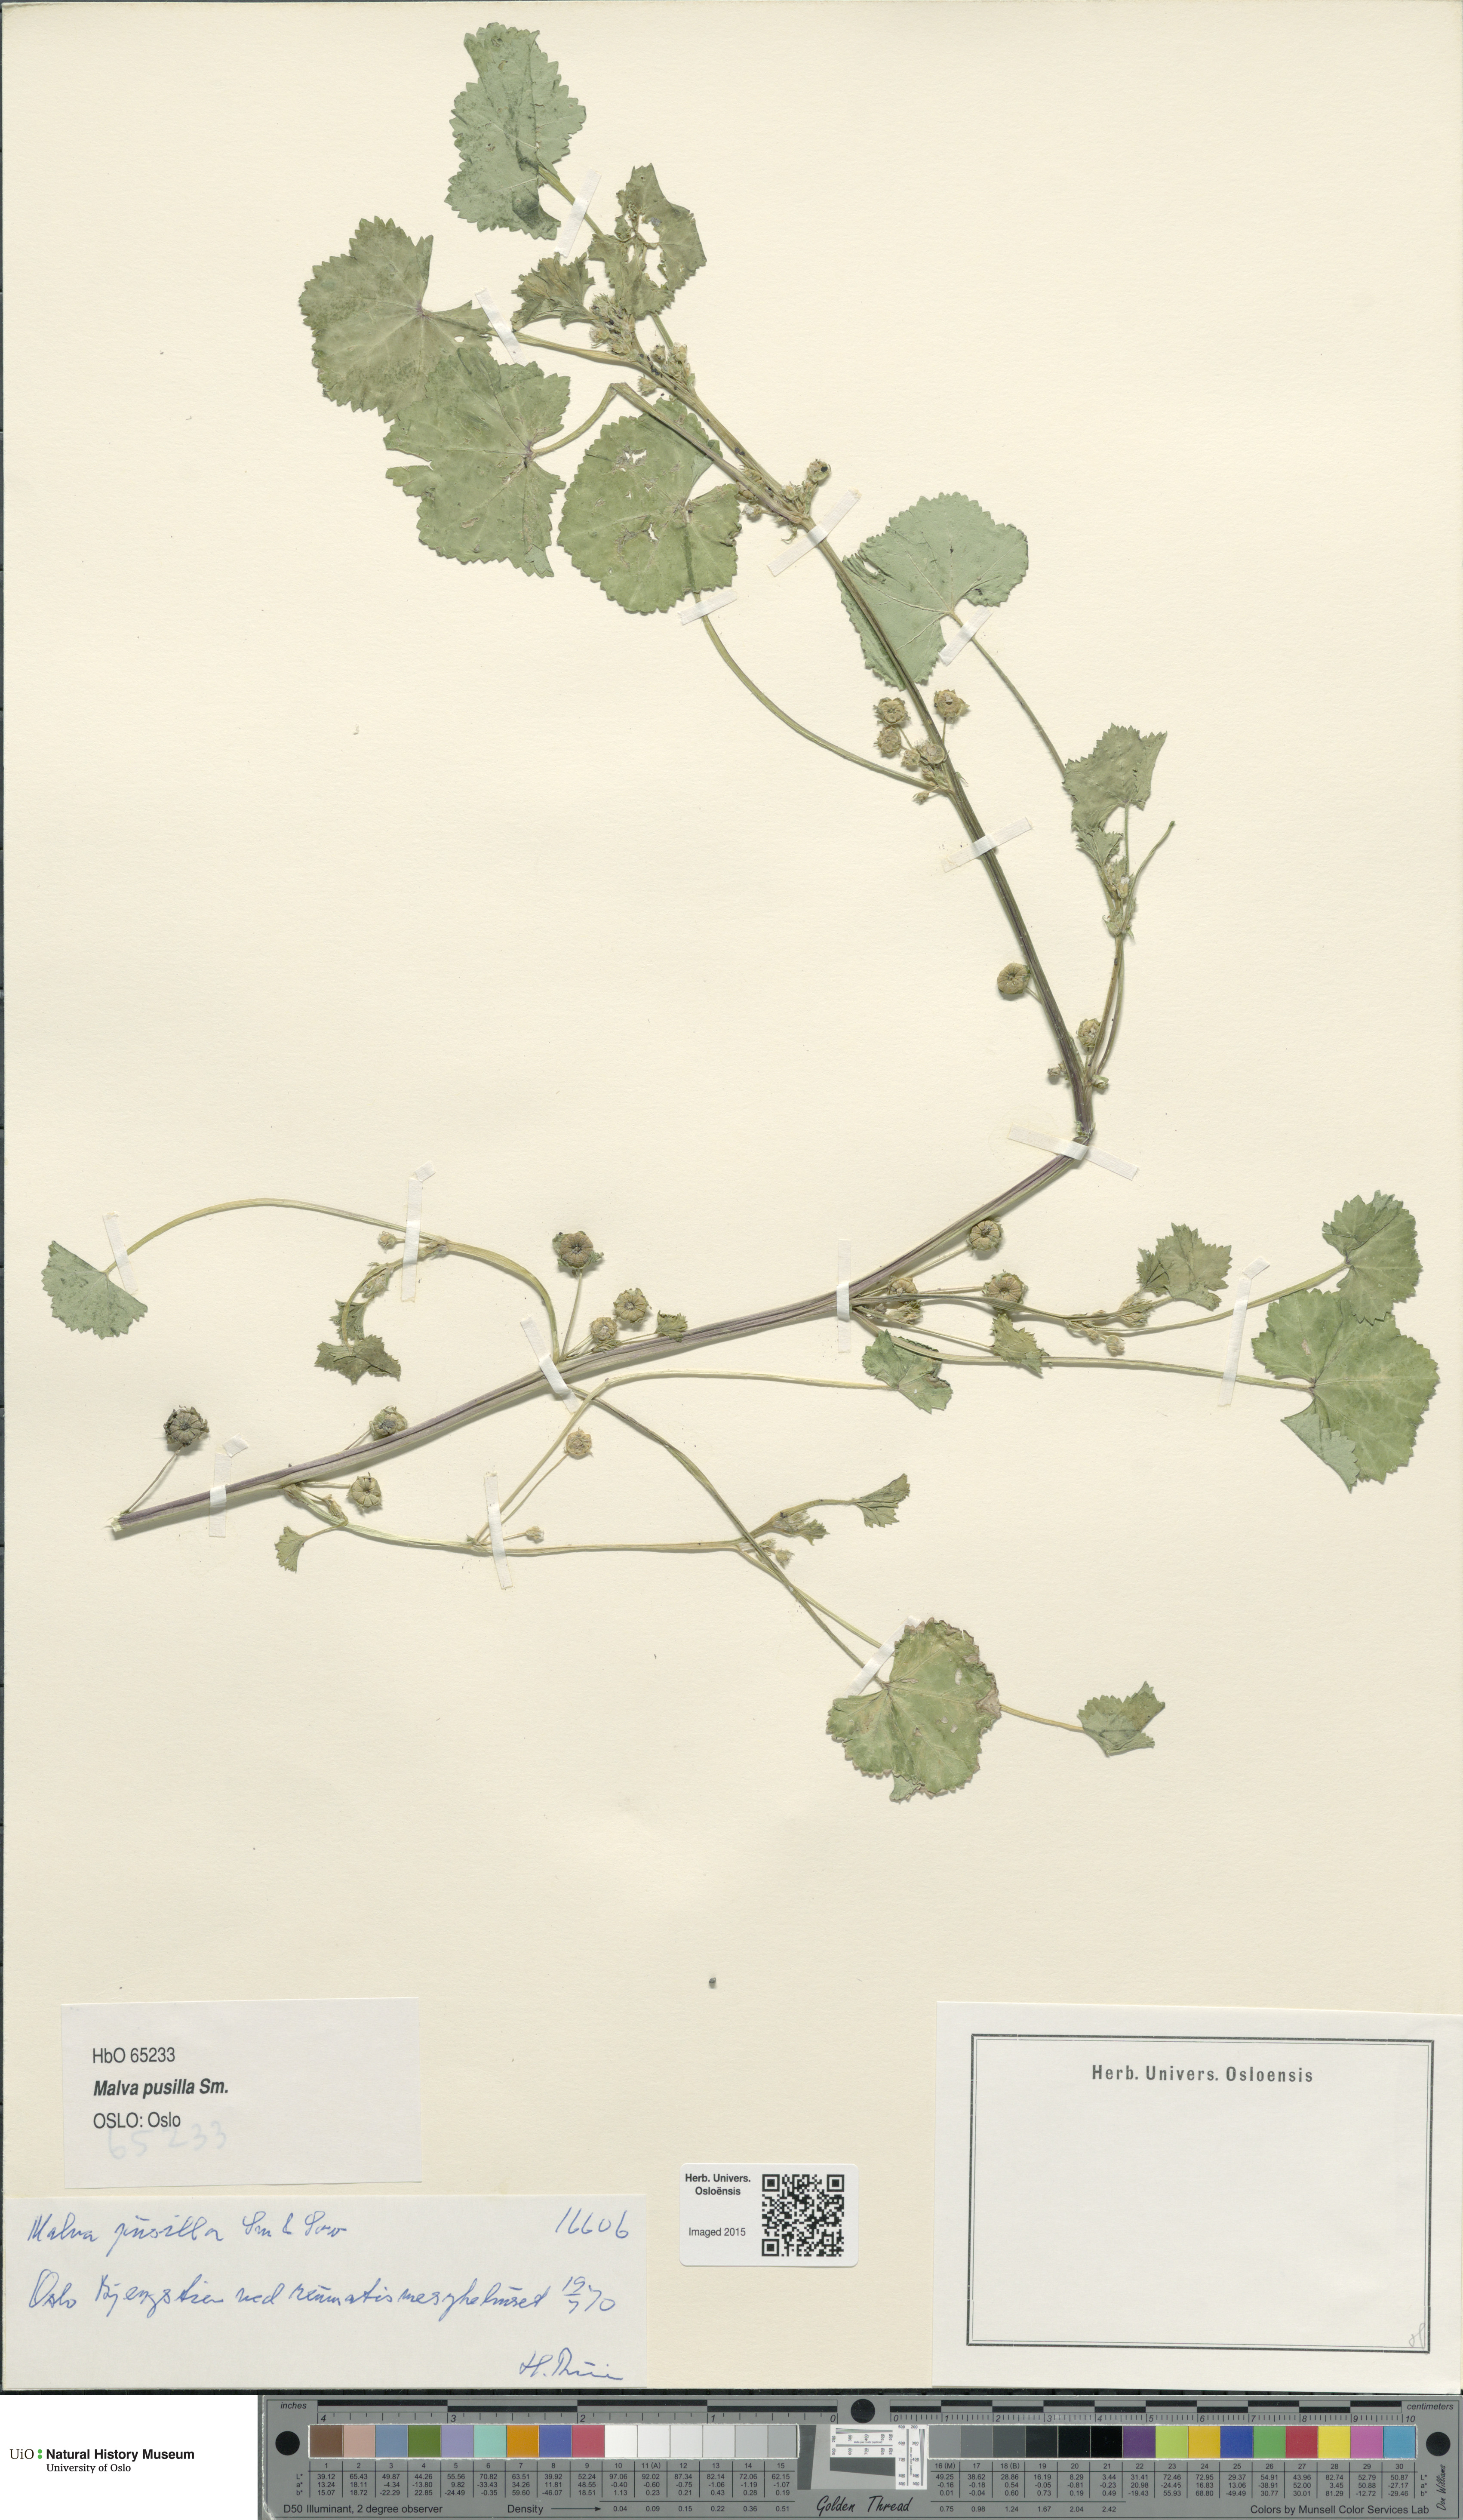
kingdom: Plantae
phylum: Tracheophyta
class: Magnoliopsida
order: Malvales
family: Malvaceae
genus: Malva
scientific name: Malva pusilla
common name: Small mallow
